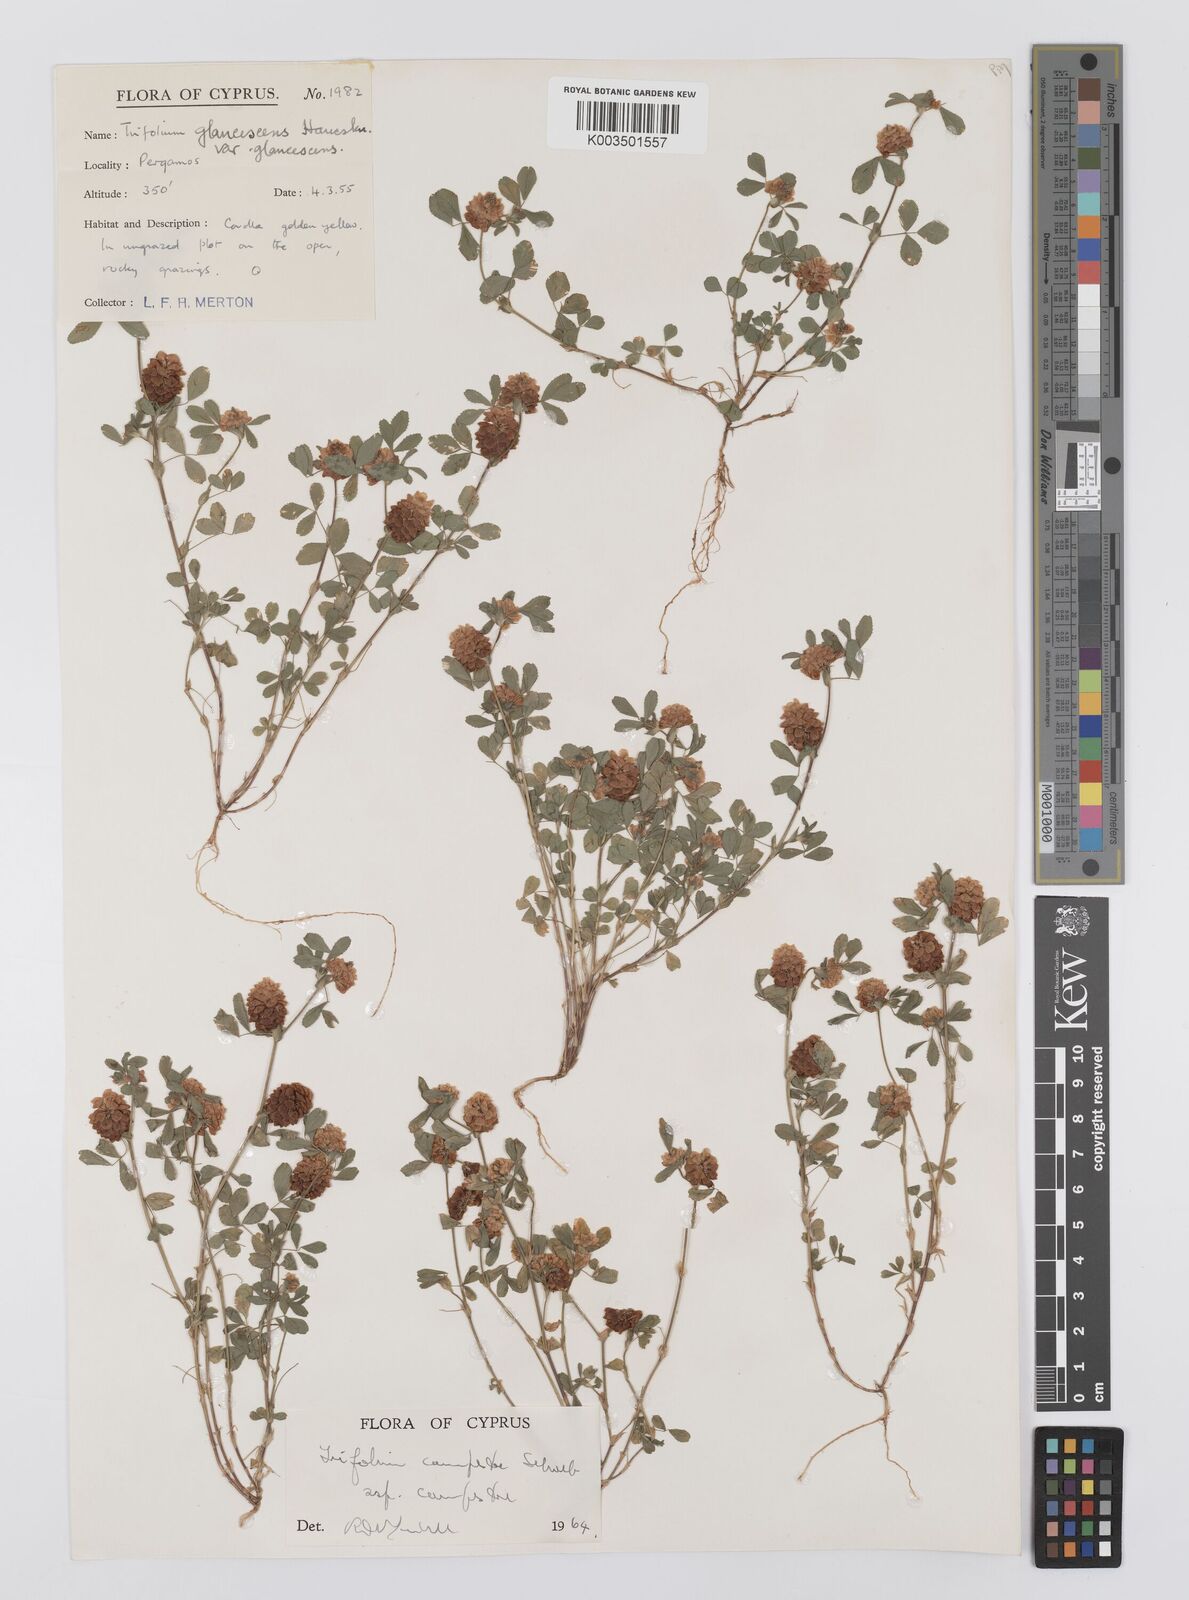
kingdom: Plantae
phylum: Tracheophyta
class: Magnoliopsida
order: Fabales
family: Fabaceae
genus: Trifolium
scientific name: Trifolium campestre
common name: Field clover
